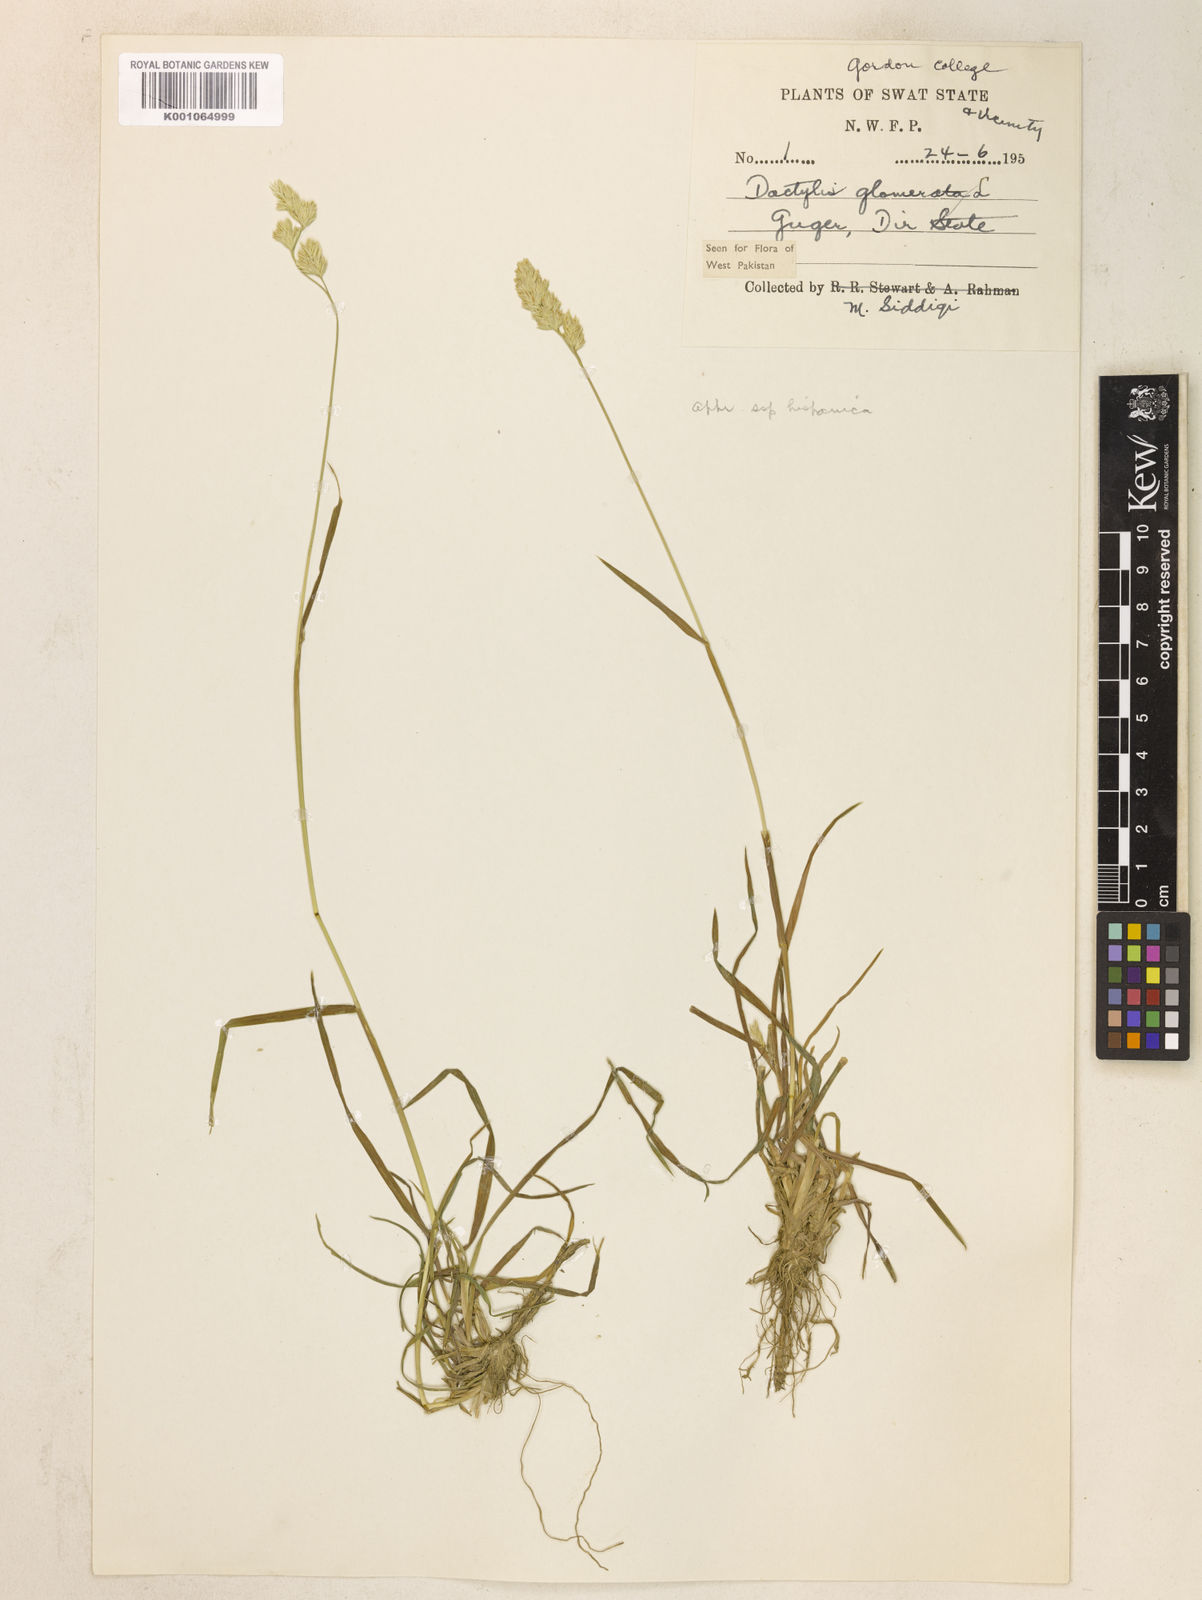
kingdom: Plantae
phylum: Tracheophyta
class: Liliopsida
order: Poales
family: Poaceae
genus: Dactylis
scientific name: Dactylis glomerata
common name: Orchardgrass
